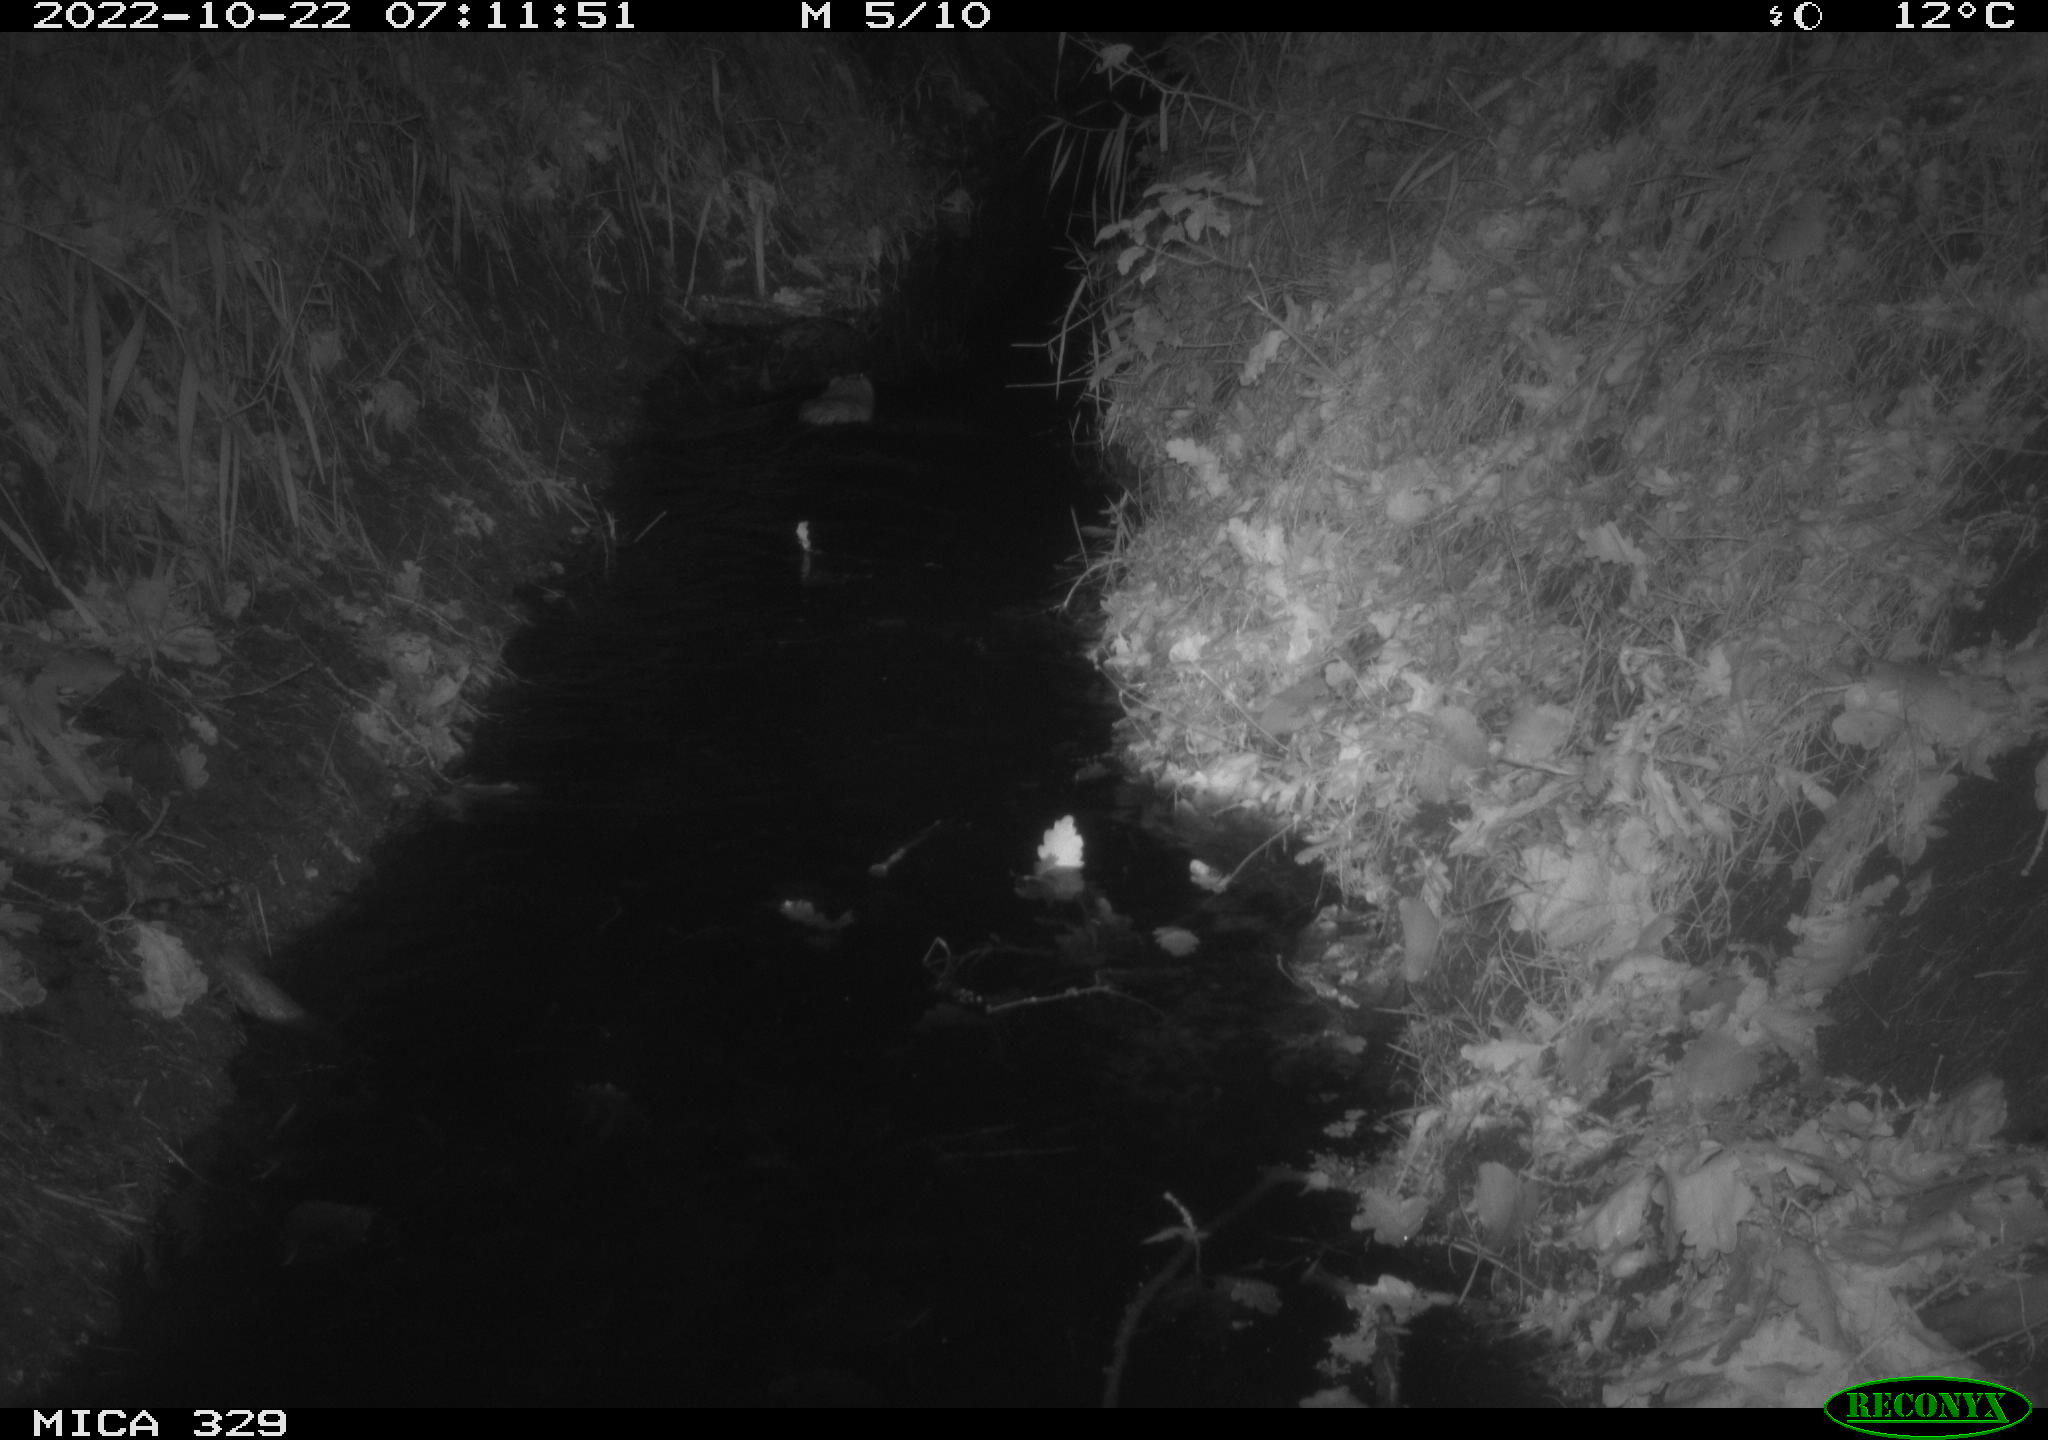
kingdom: Animalia
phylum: Chordata
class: Mammalia
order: Rodentia
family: Cricetidae
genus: Ondatra
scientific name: Ondatra zibethicus
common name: Muskrat
